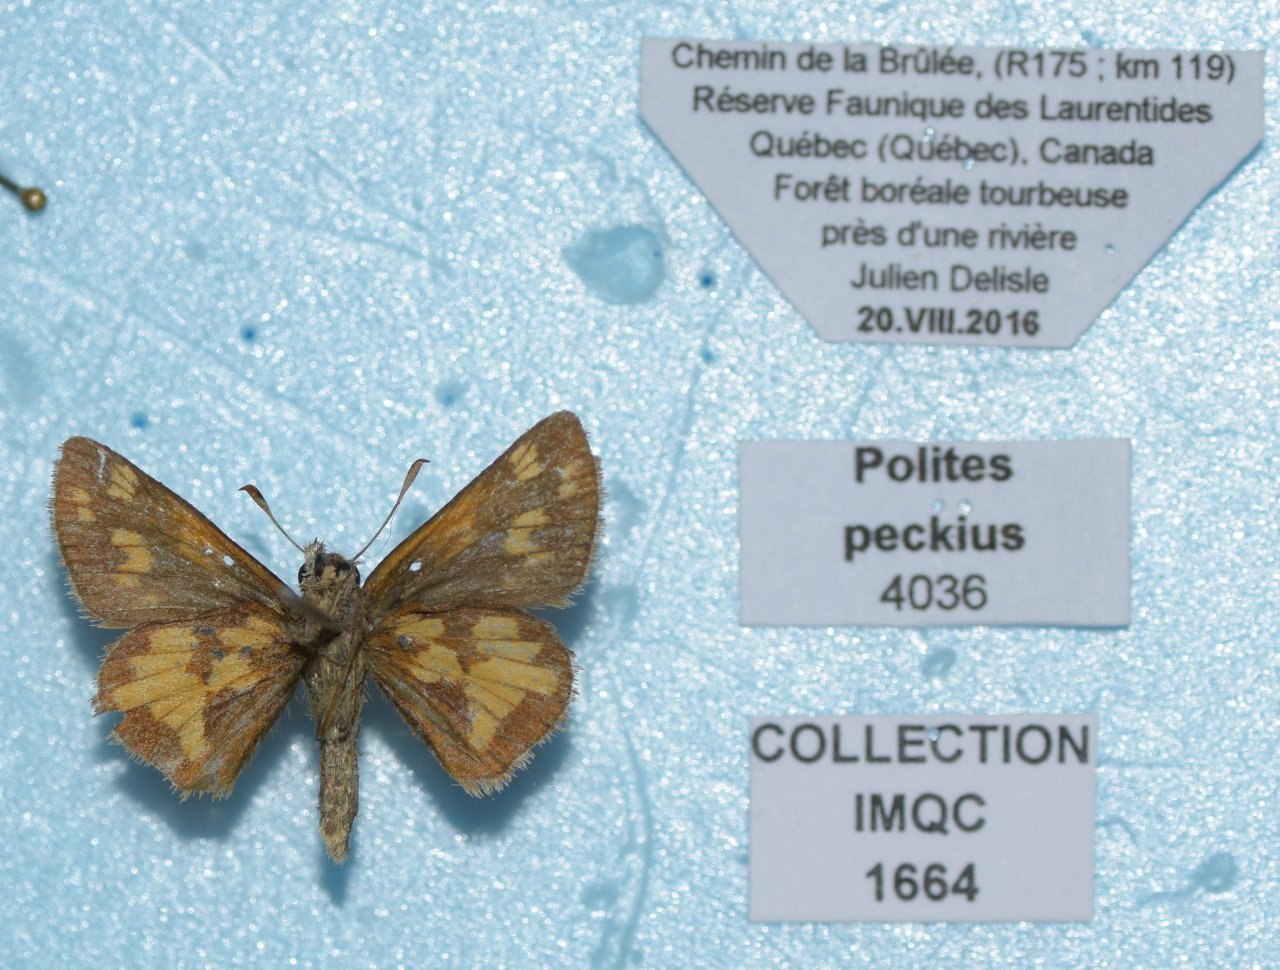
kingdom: Animalia
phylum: Arthropoda
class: Insecta
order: Lepidoptera
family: Hesperiidae
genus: Polites
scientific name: Polites coras
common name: Peck's Skipper
